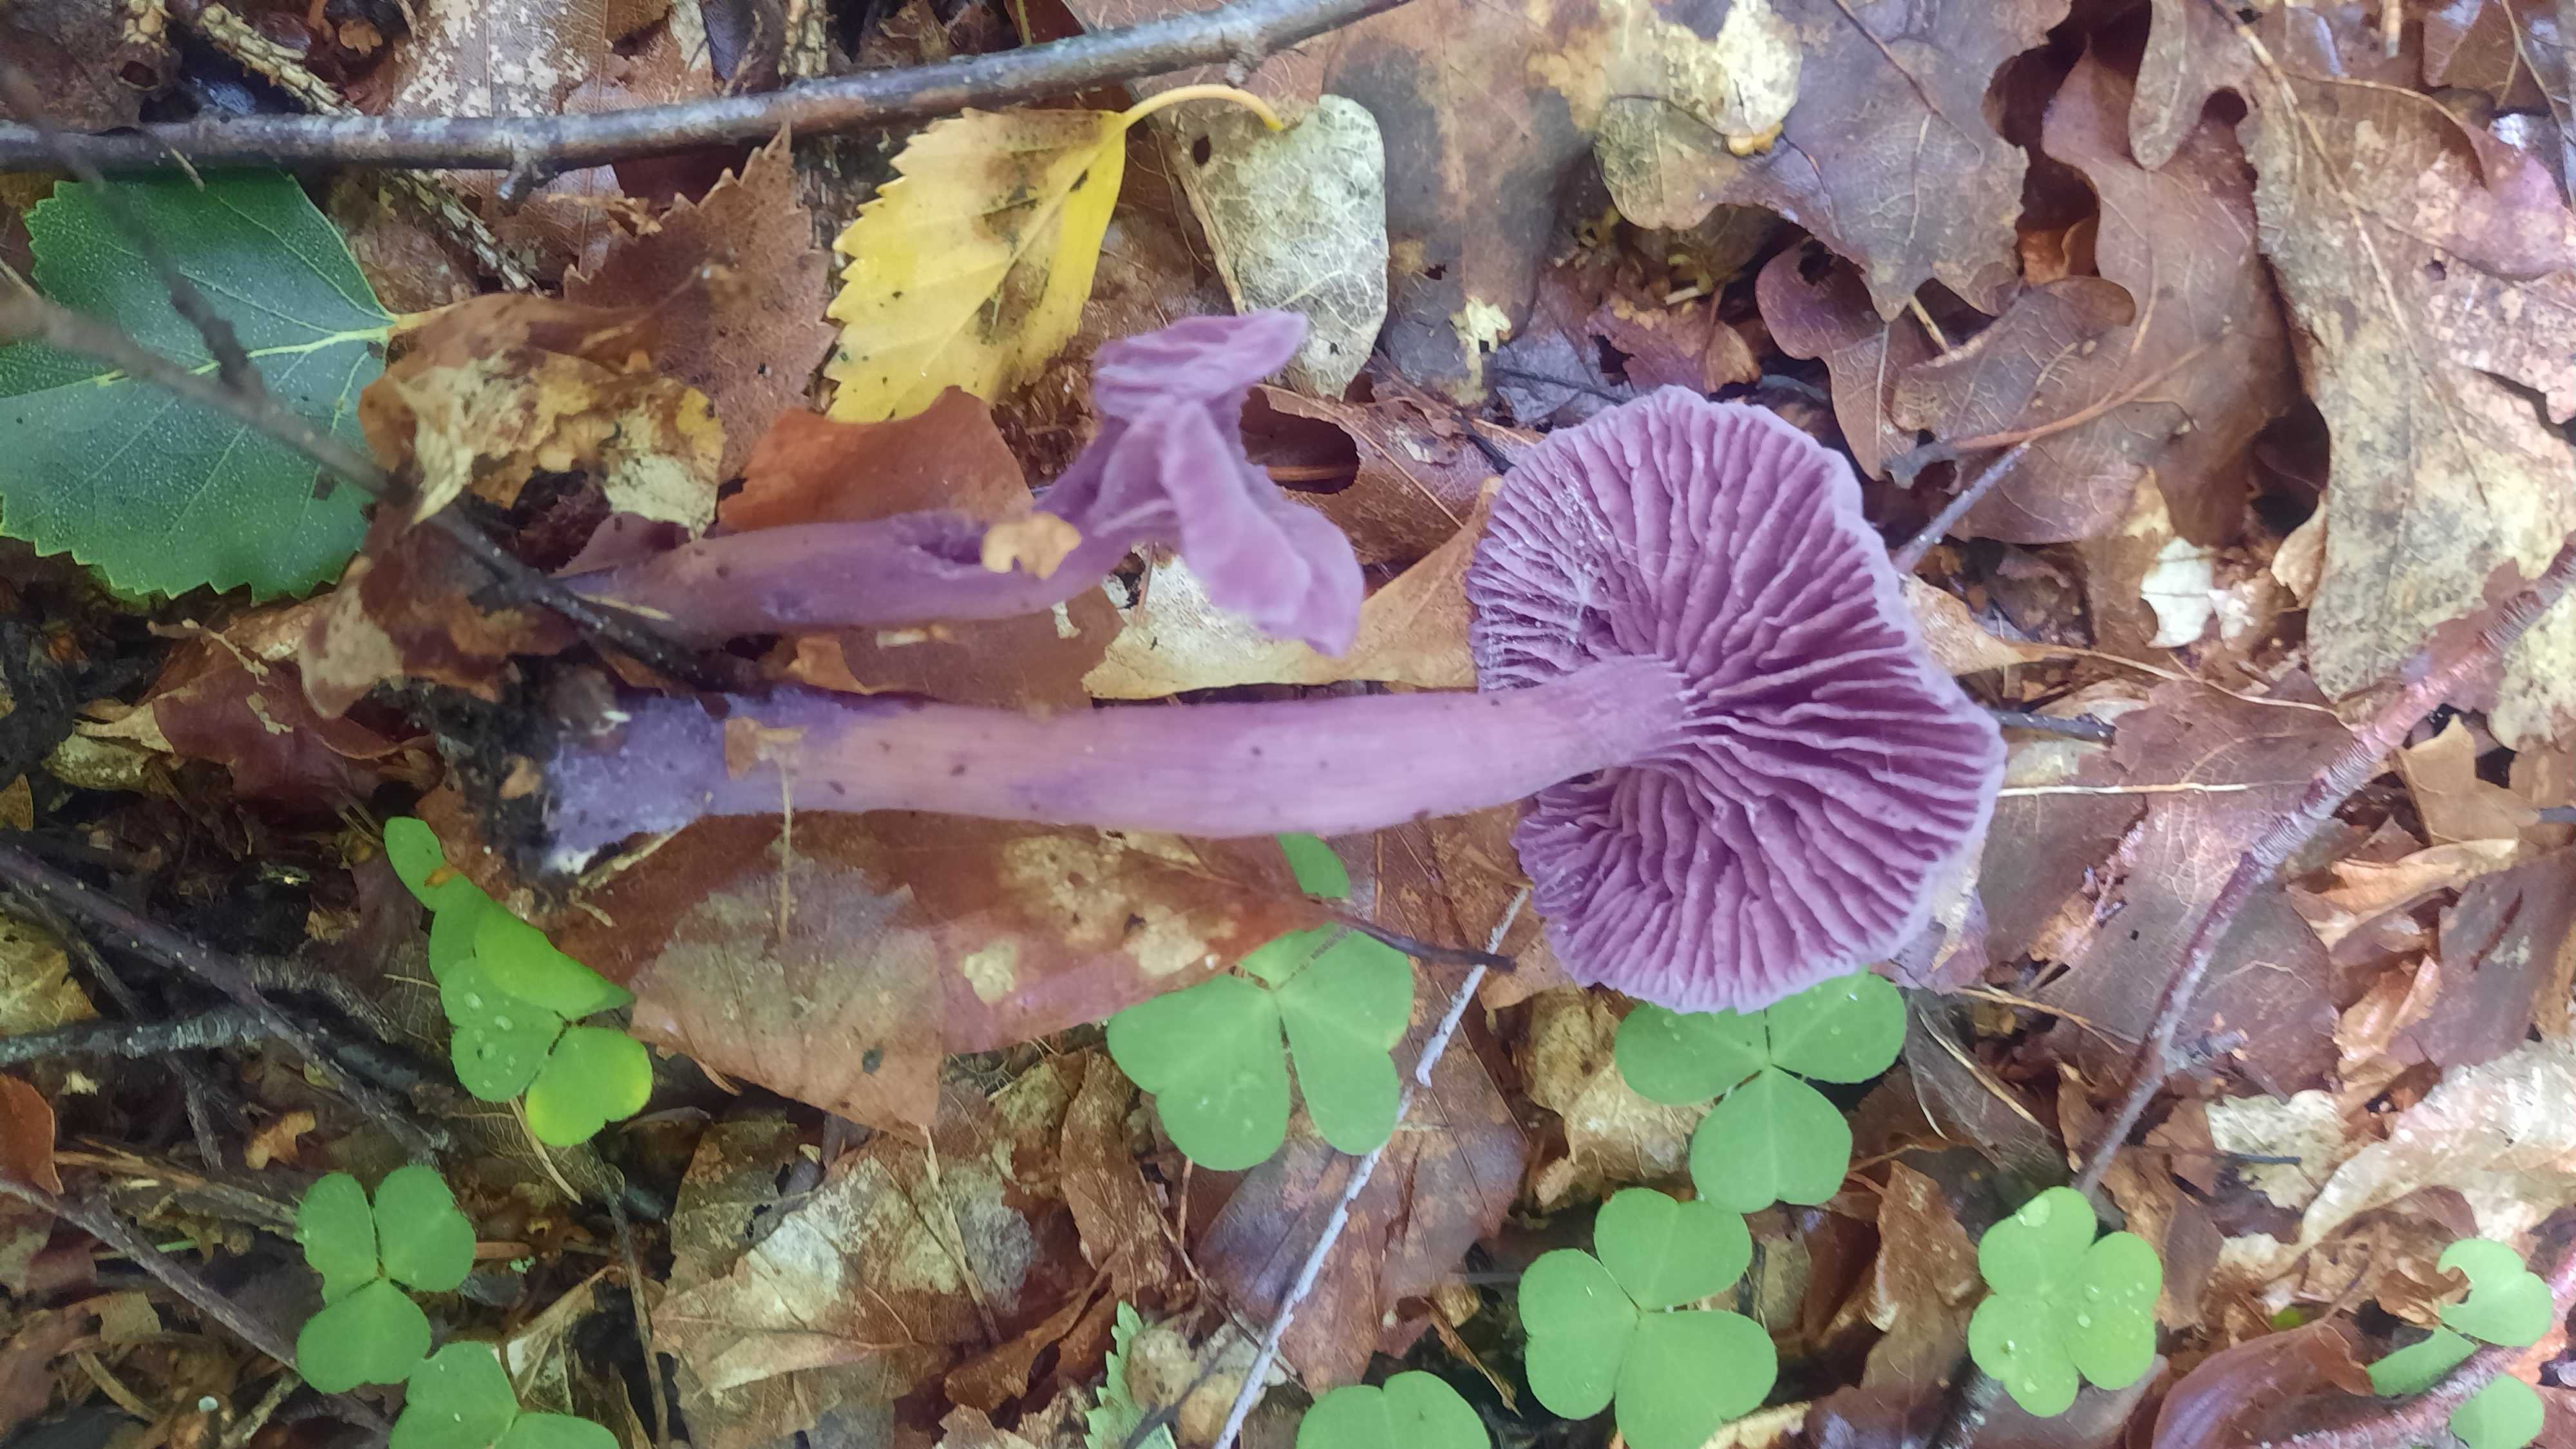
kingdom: Fungi
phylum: Basidiomycota
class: Agaricomycetes
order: Agaricales
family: Hydnangiaceae
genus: Laccaria
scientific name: Laccaria amethystina
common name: violet ametysthat
